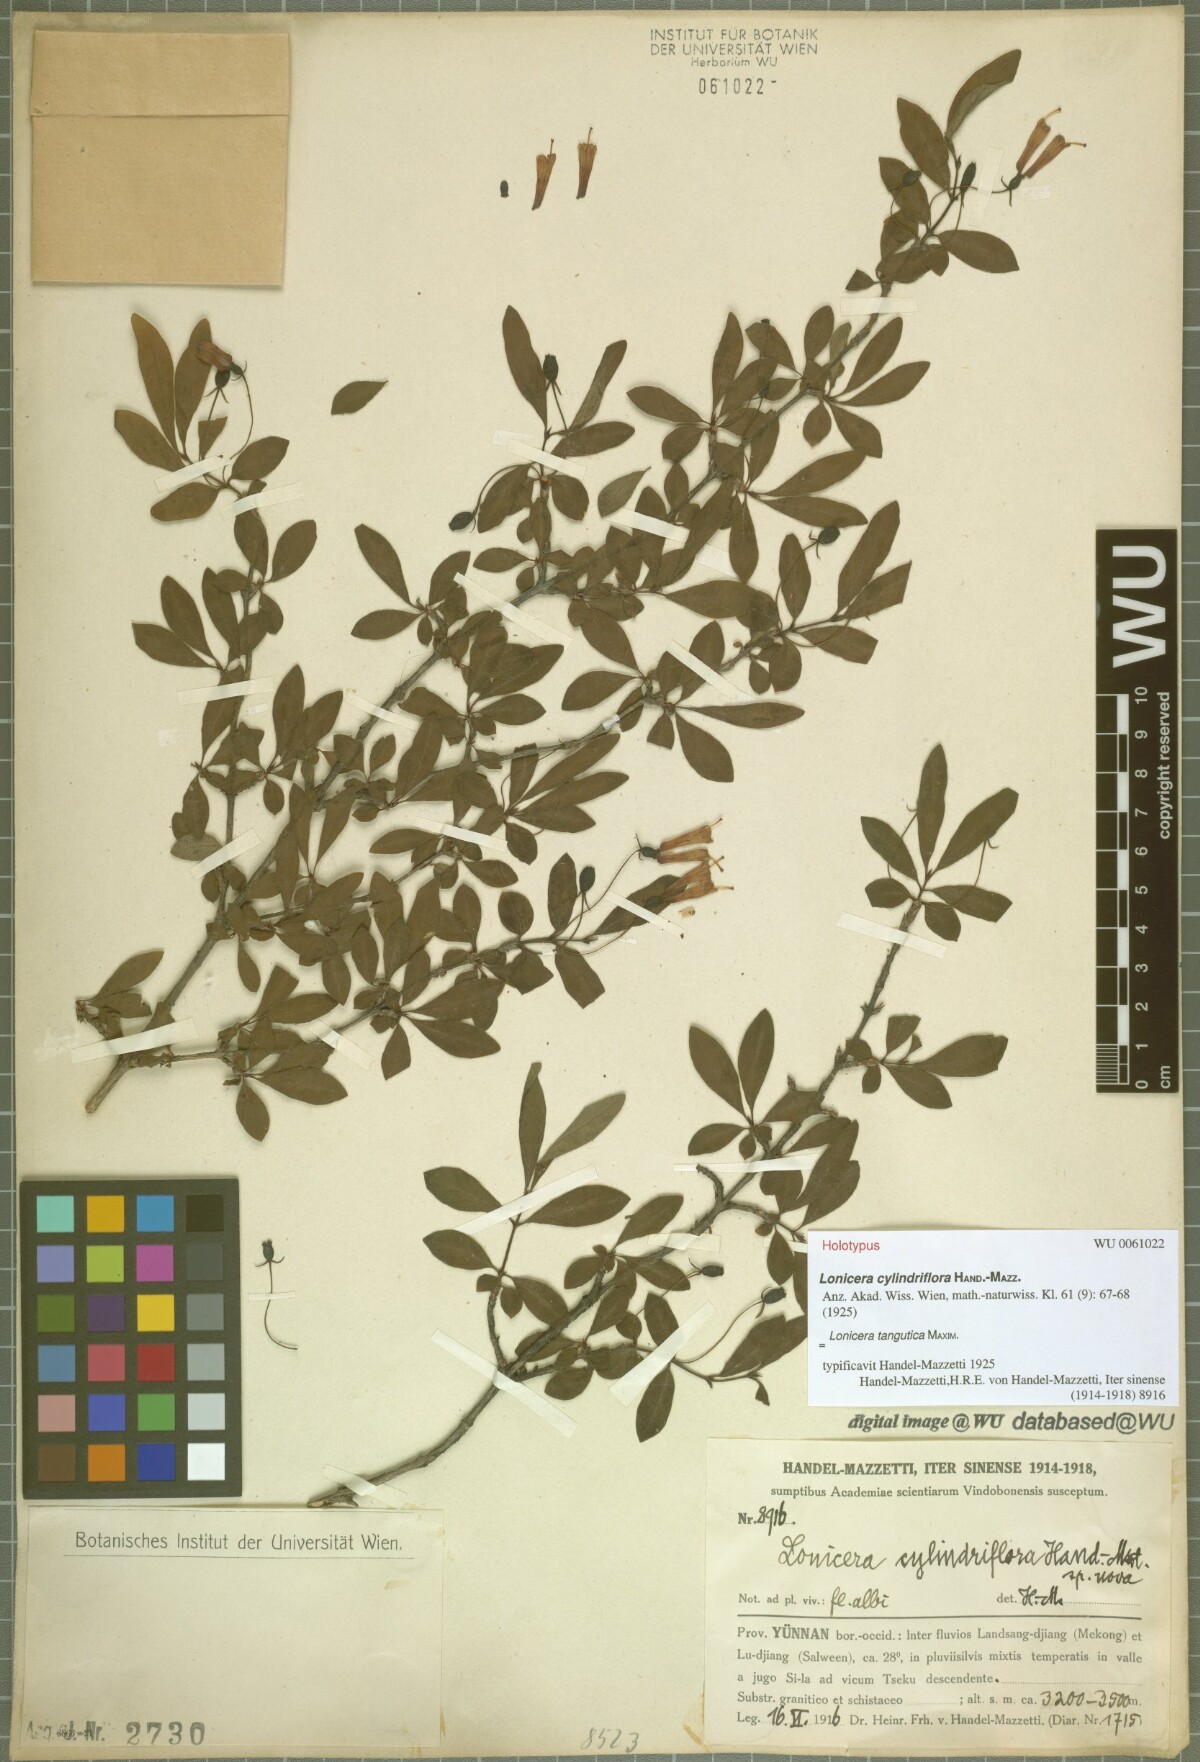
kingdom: Plantae
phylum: Tracheophyta
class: Magnoliopsida
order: Dipsacales
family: Caprifoliaceae
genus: Lonicera
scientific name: Lonicera tangutica
